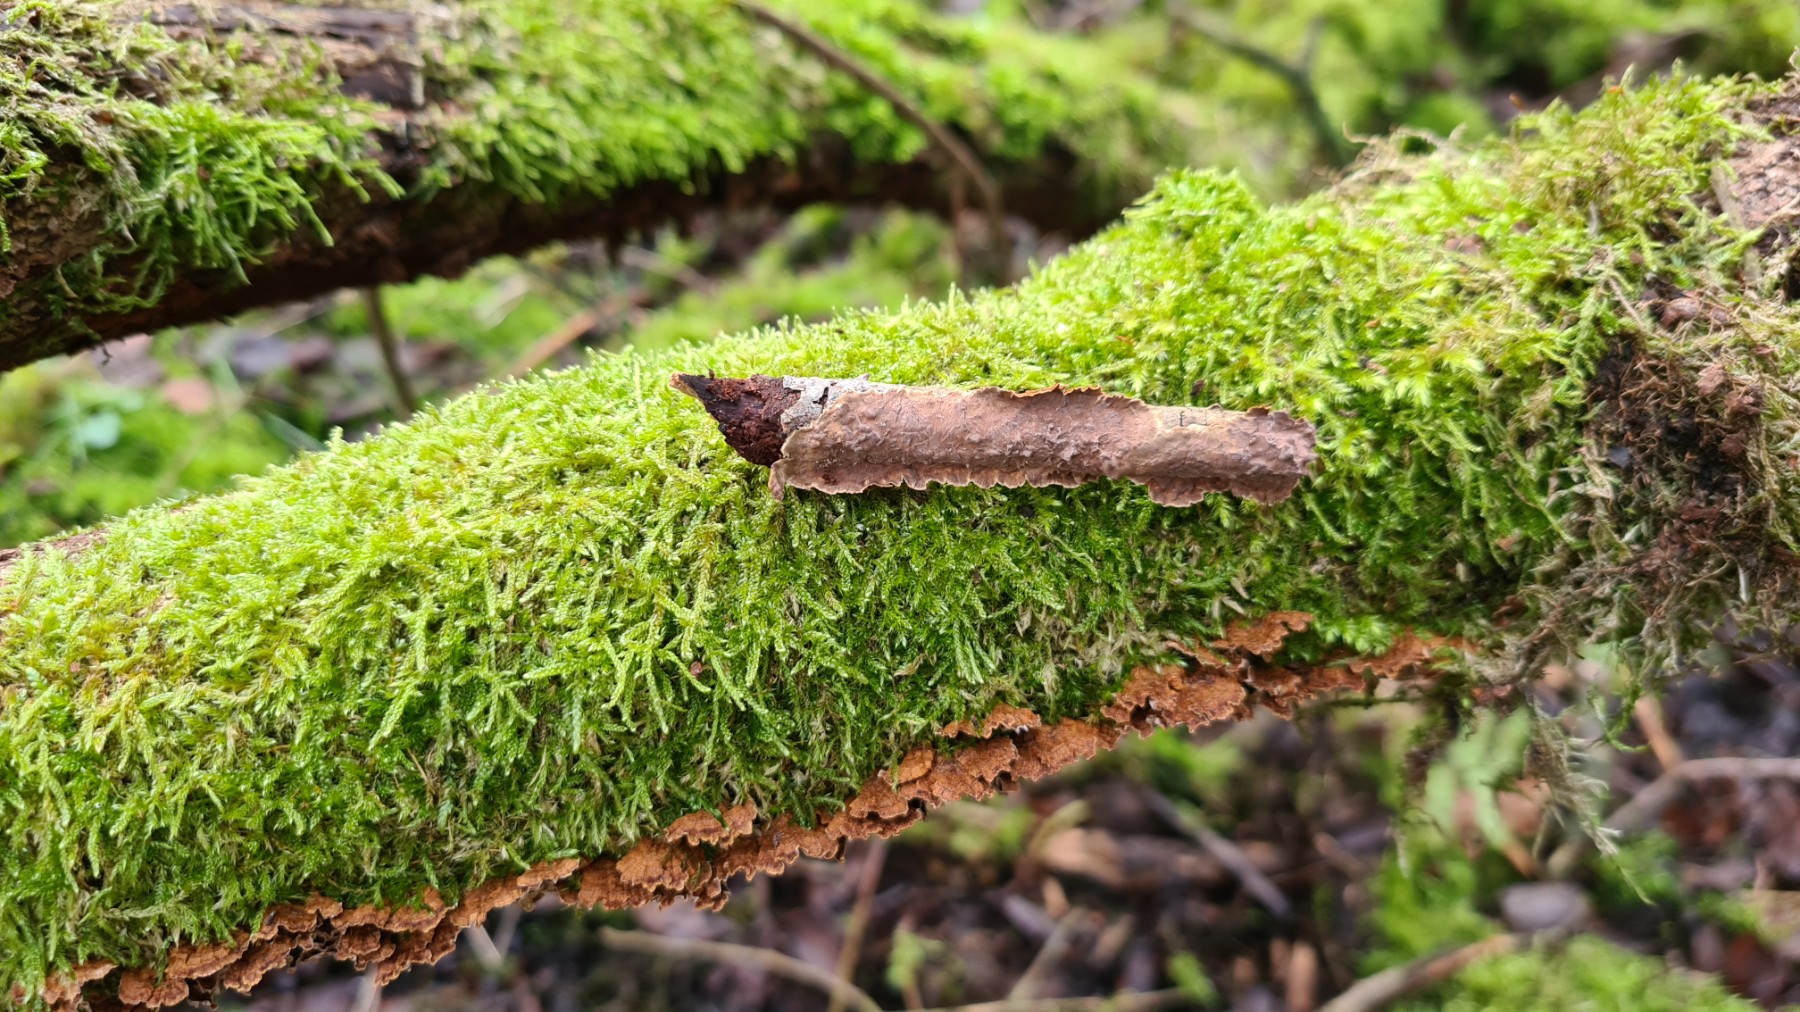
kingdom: Fungi
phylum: Basidiomycota
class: Agaricomycetes
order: Hymenochaetales
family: Hymenochaetaceae
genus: Hydnoporia
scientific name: Hydnoporia tabacina
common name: tobaksbrun ruslædersvamp
